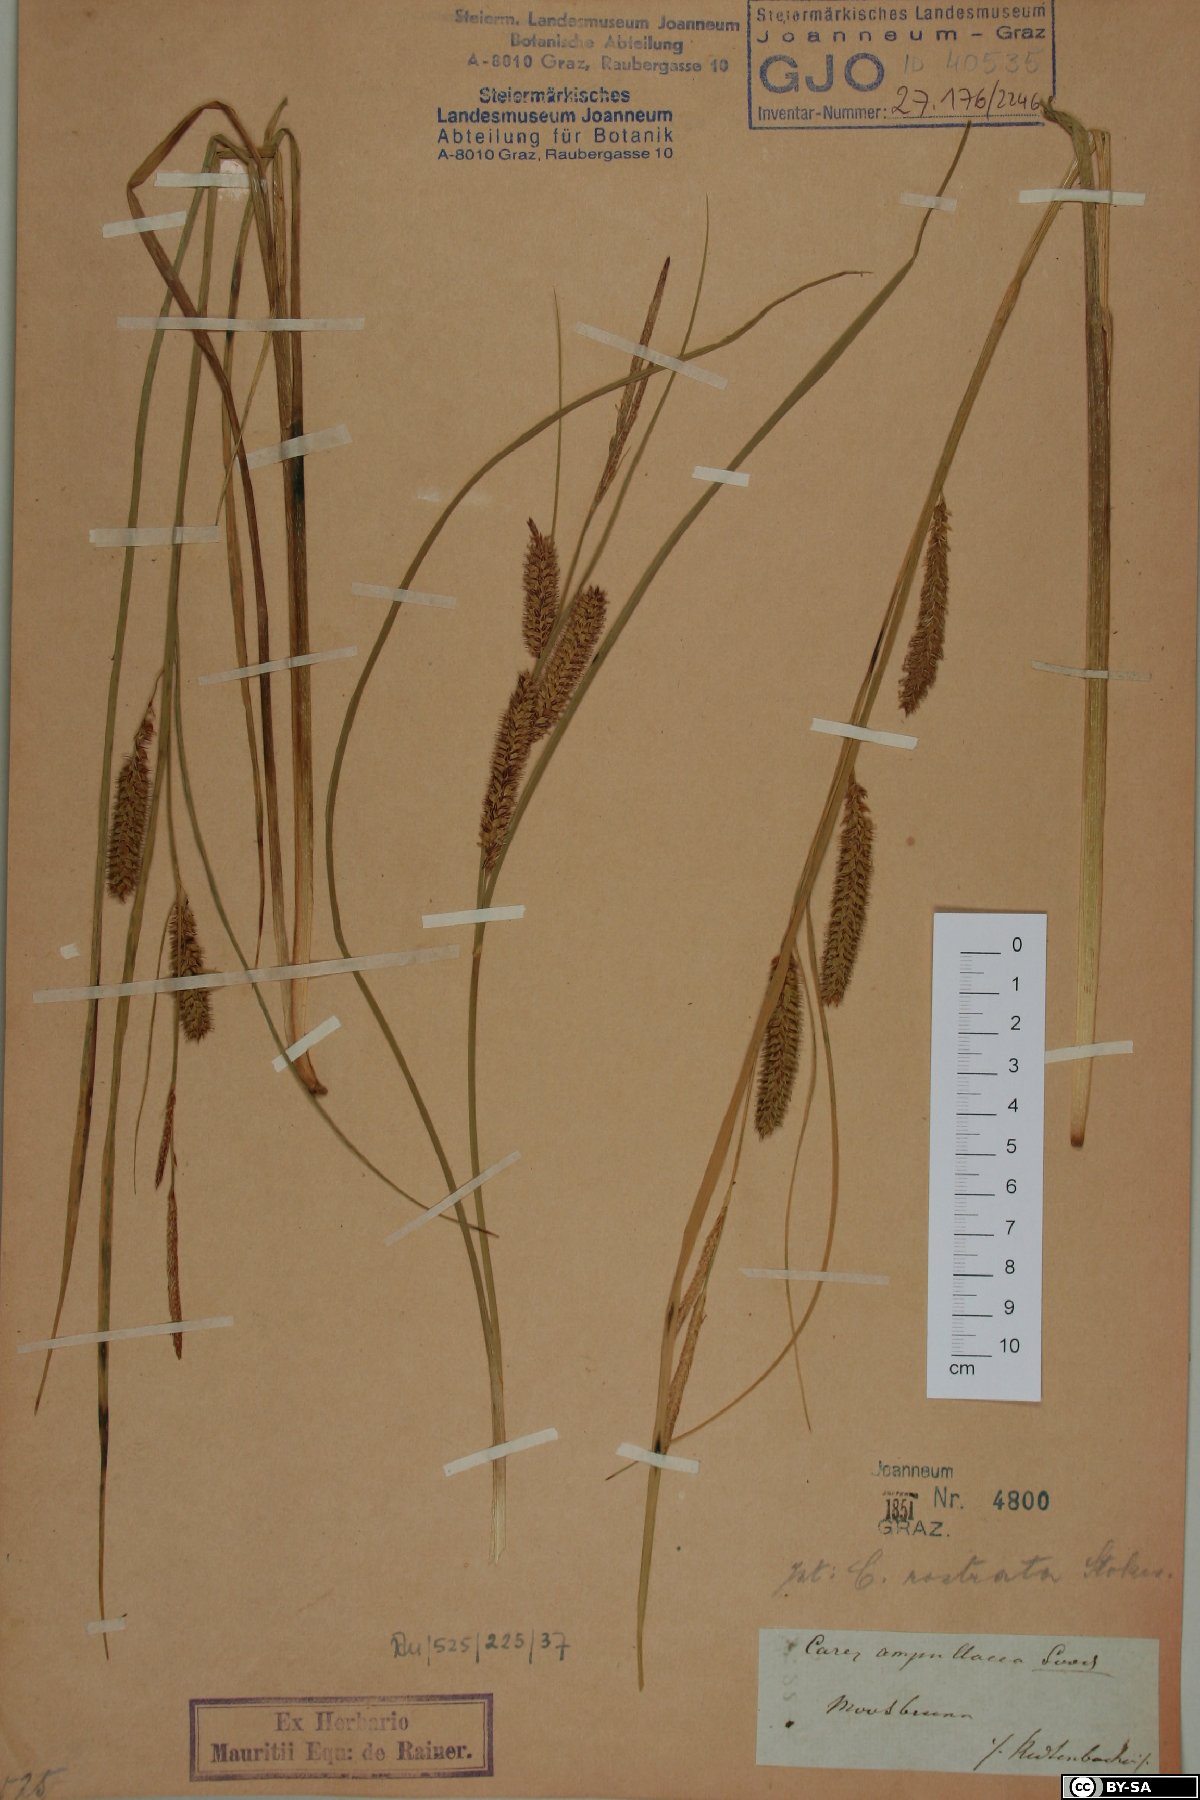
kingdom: Plantae
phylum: Tracheophyta
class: Liliopsida
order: Poales
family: Cyperaceae
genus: Carex
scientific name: Carex rostrata
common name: Bottle sedge
